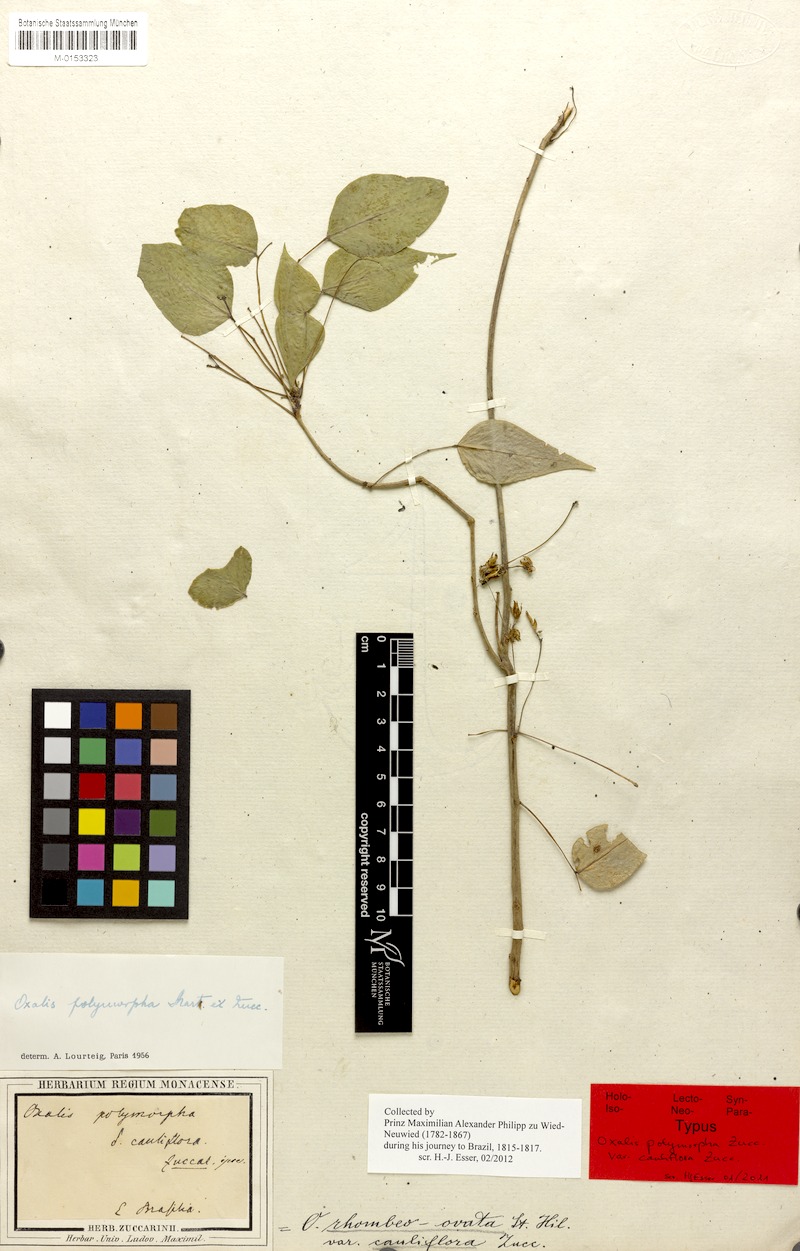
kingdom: Plantae
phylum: Tracheophyta
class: Magnoliopsida
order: Oxalidales
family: Oxalidaceae
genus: Oxalis
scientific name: Oxalis polymorpha
